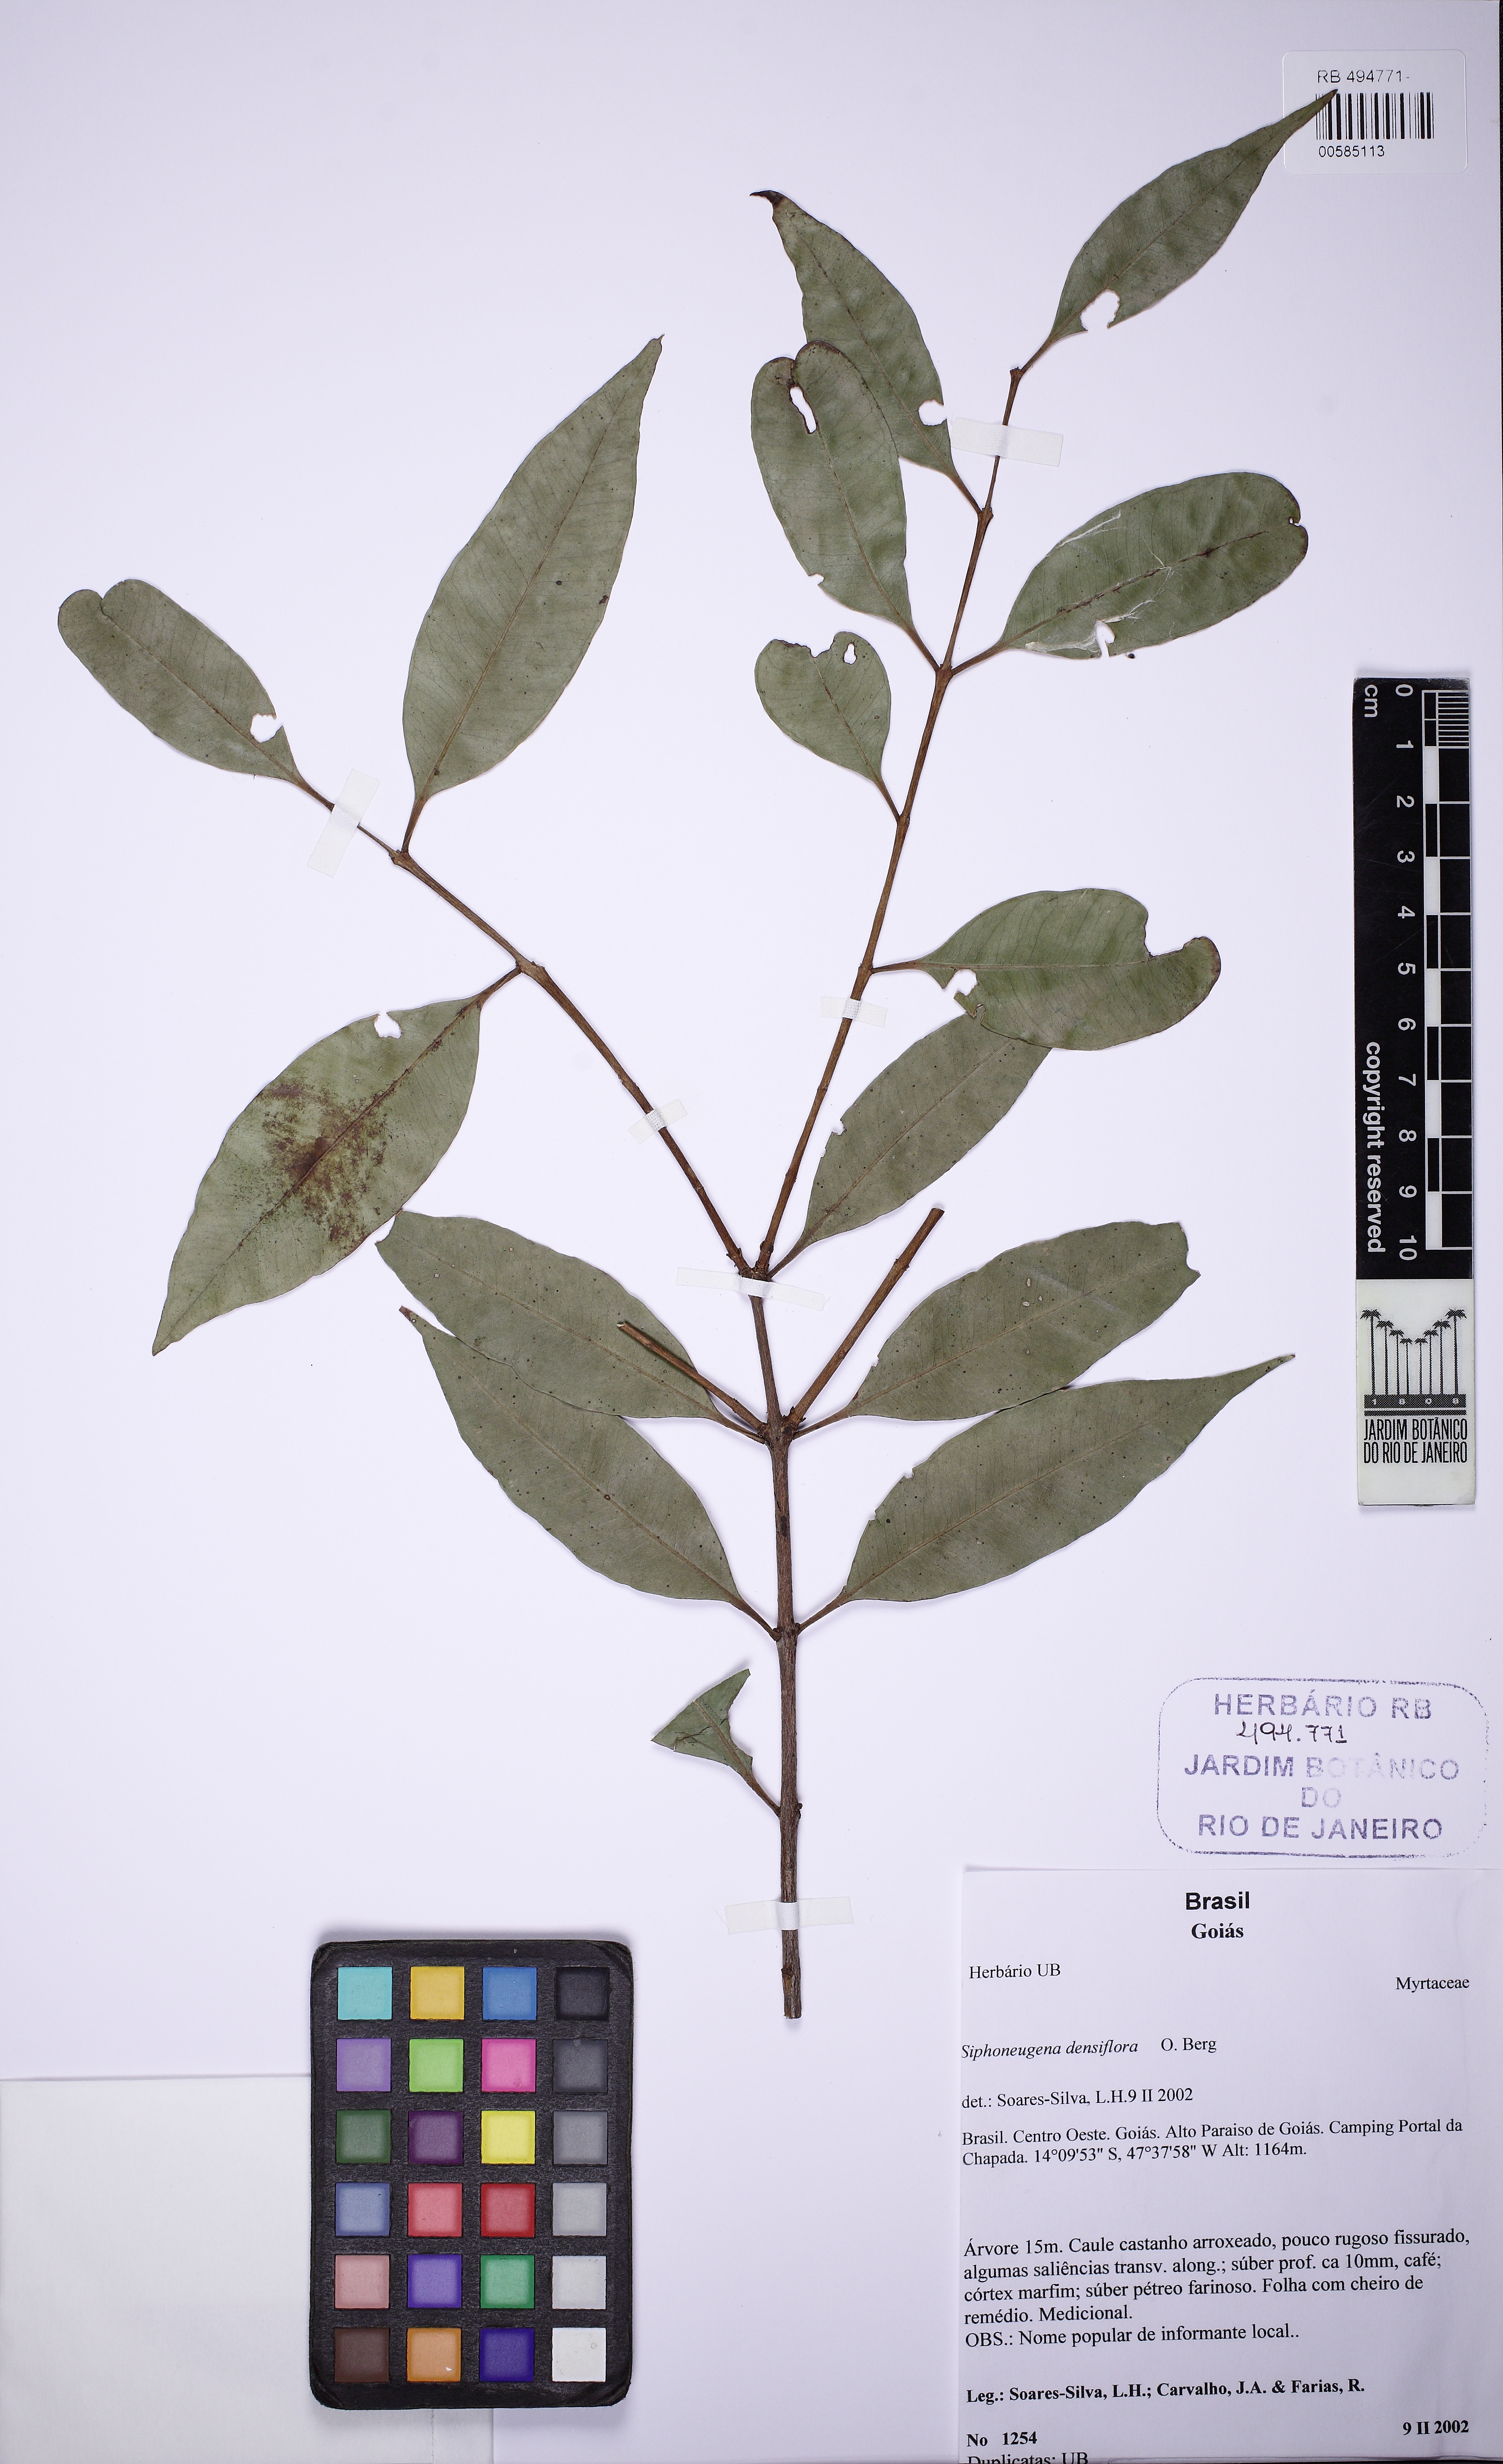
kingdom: Plantae
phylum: Tracheophyta
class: Magnoliopsida
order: Myrtales
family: Myrtaceae
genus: Siphoneugena
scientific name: Siphoneugena densiflora
